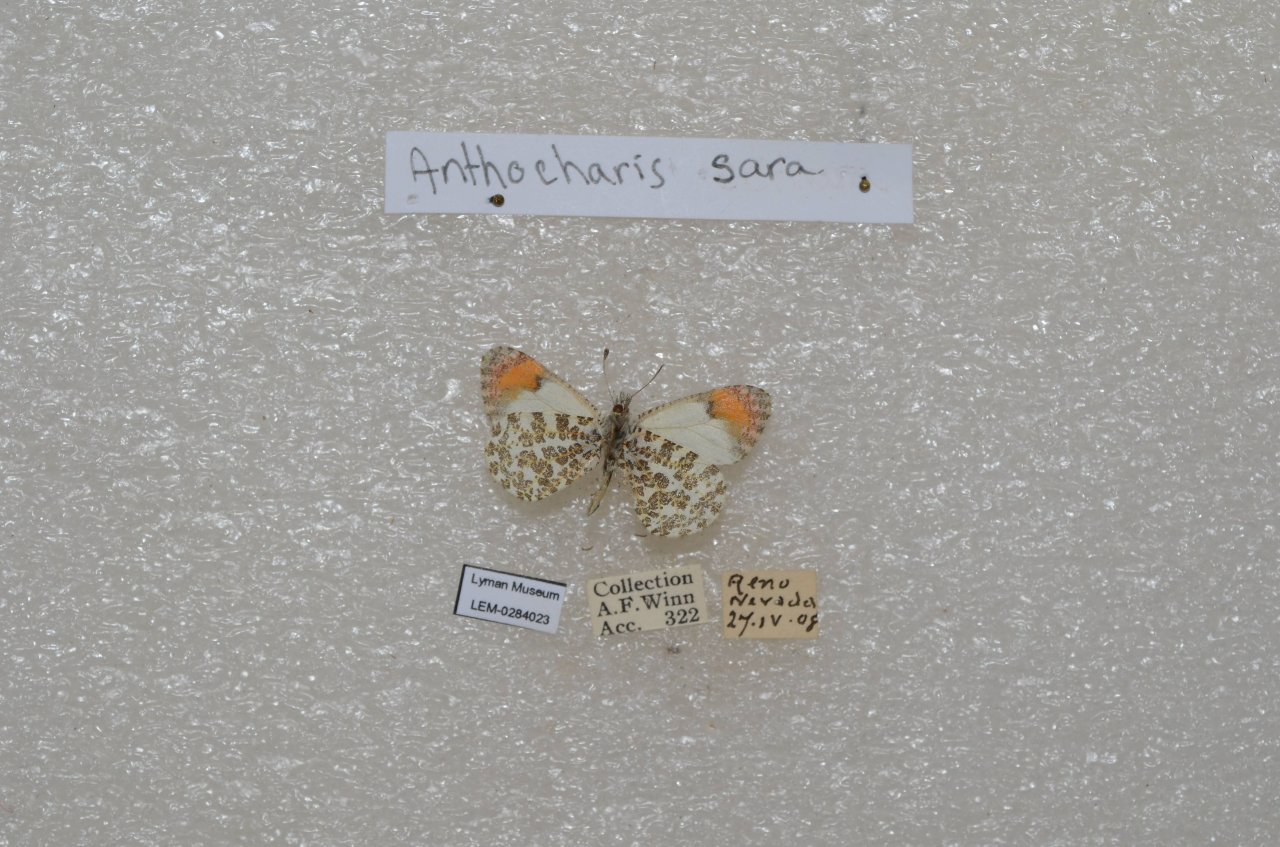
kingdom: Animalia
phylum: Arthropoda
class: Insecta
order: Lepidoptera
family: Pieridae
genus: Anthocharis
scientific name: Anthocharis sara
